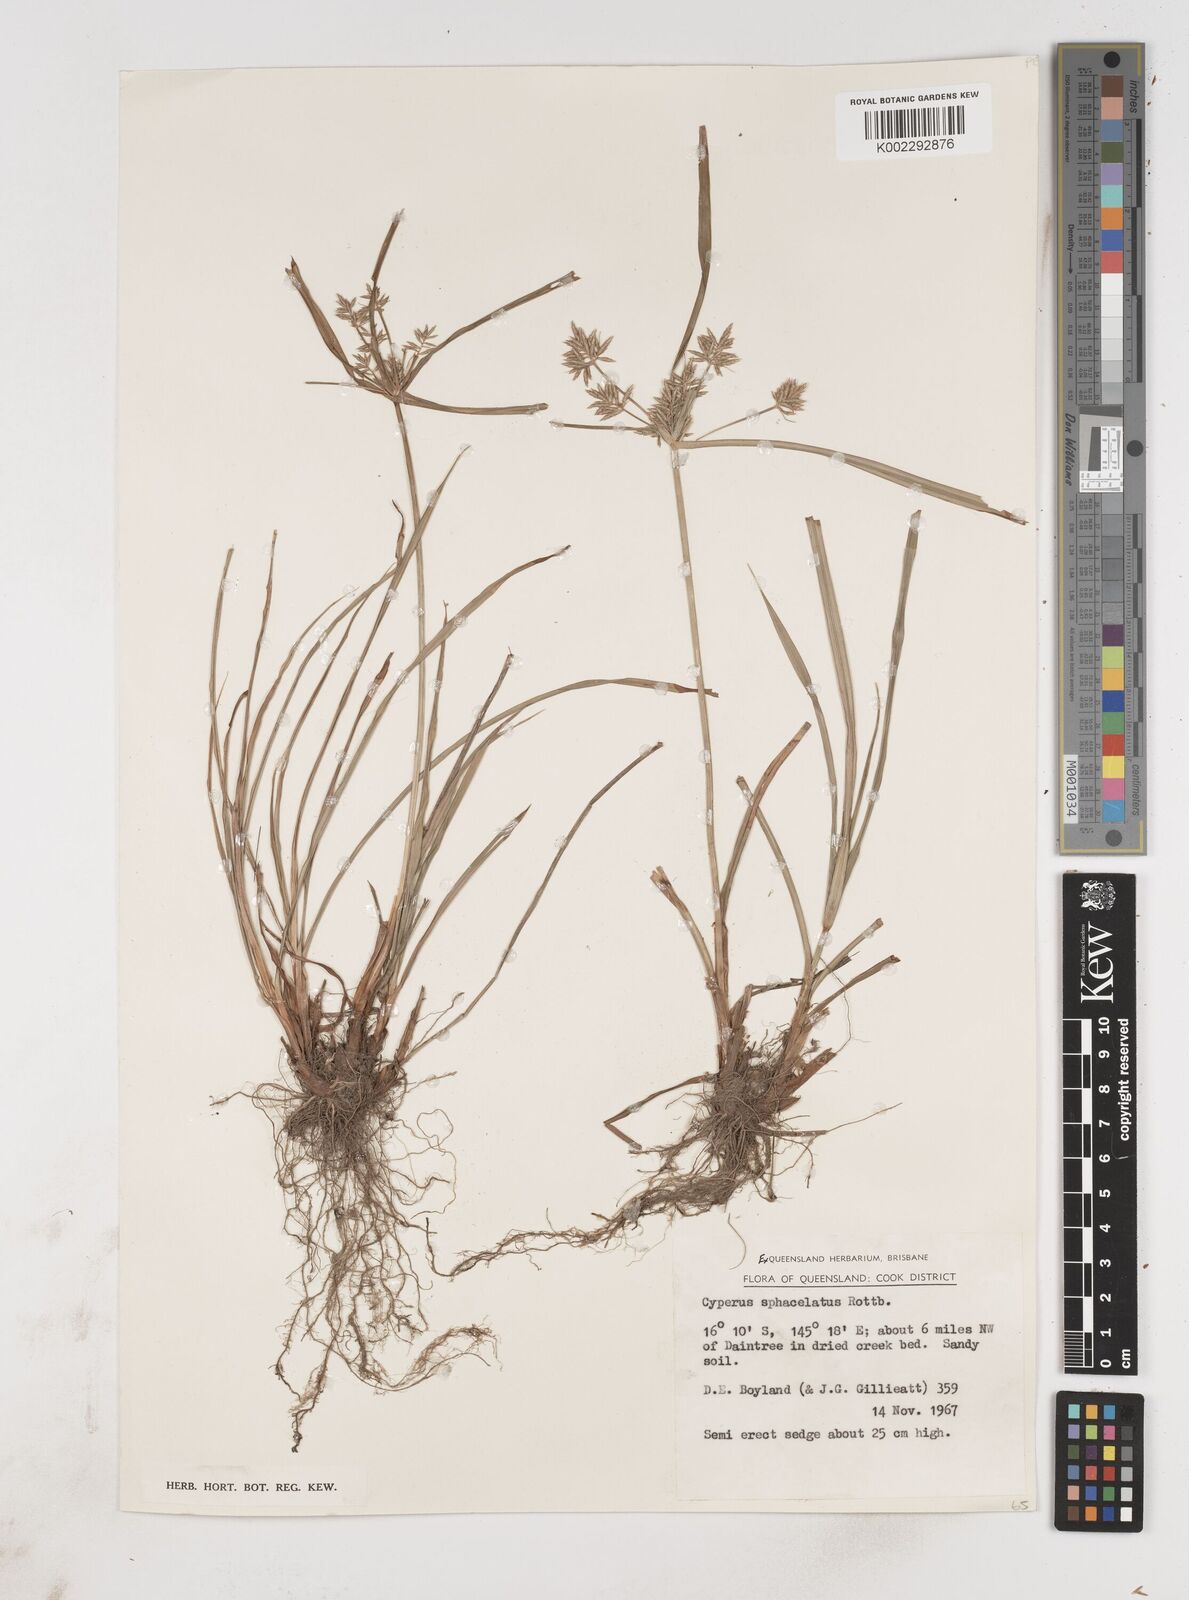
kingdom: Plantae
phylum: Tracheophyta
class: Liliopsida
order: Poales
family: Cyperaceae
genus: Cyperus
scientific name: Cyperus sphacelatus
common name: Roadside flatsedge
